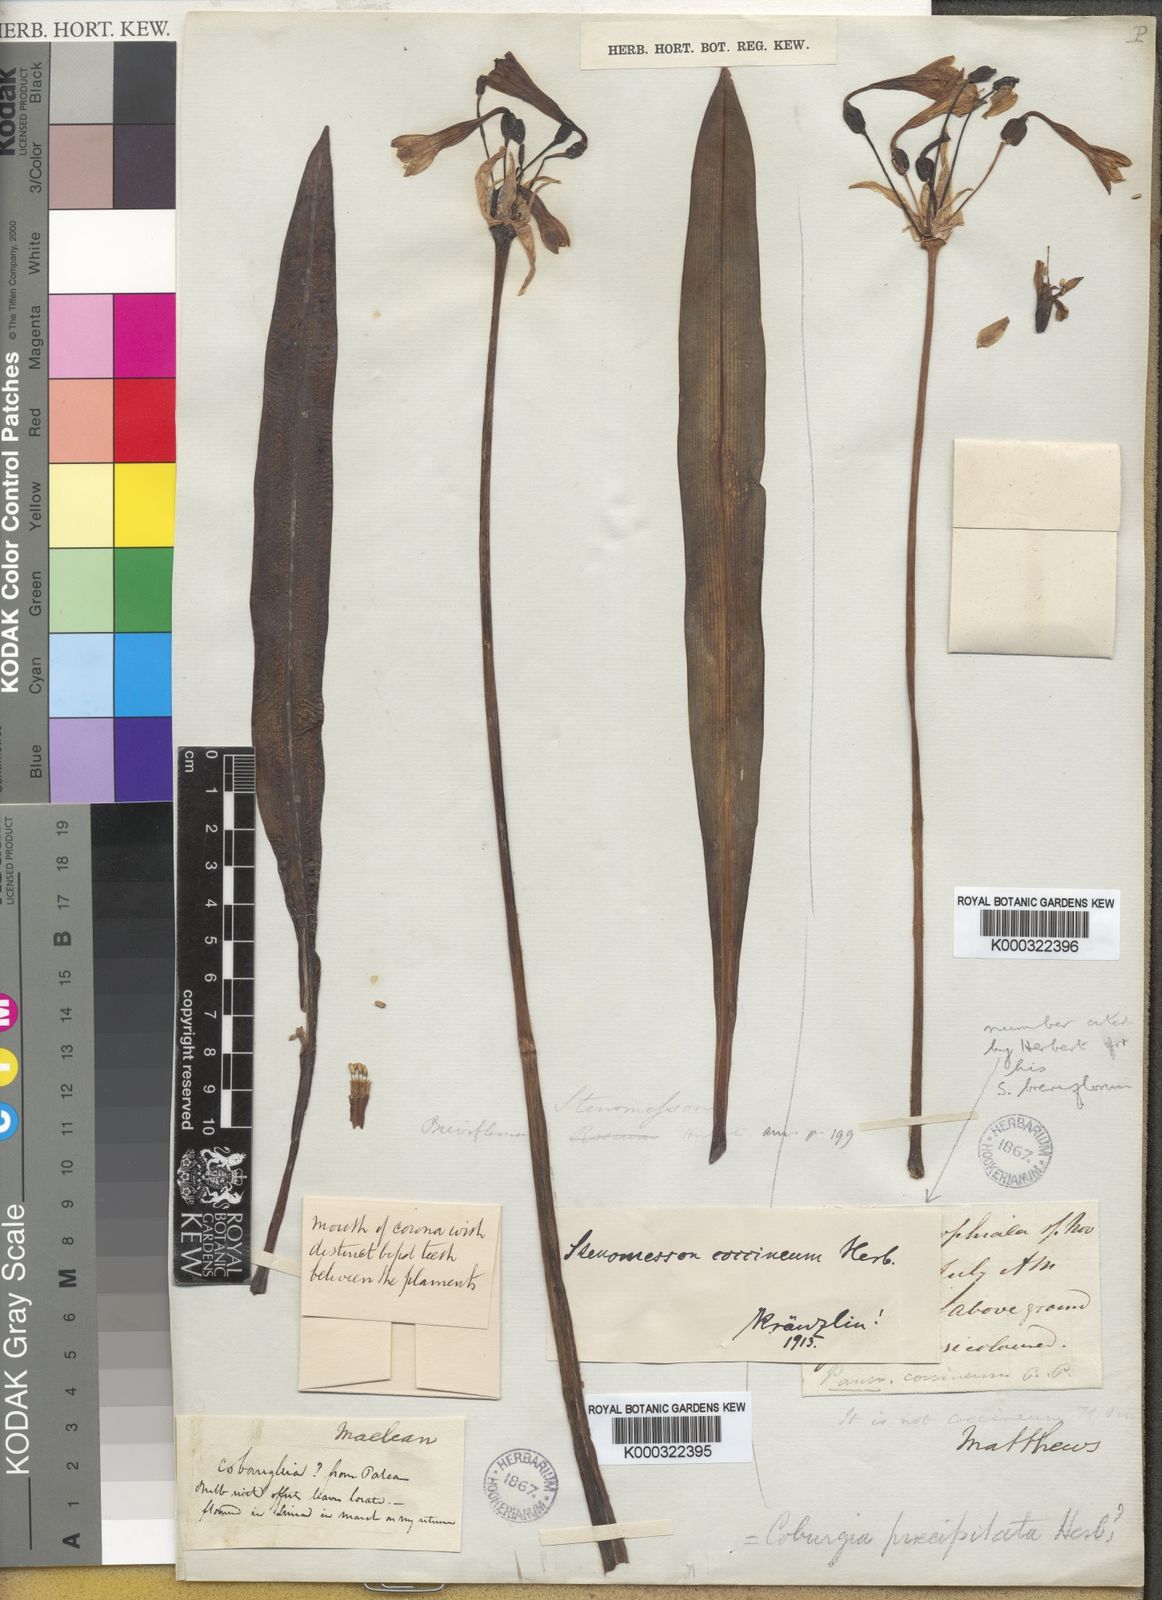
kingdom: Plantae
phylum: Tracheophyta
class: Liliopsida
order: Asparagales
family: Amaryllidaceae
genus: Stenomesson
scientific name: Stenomesson
